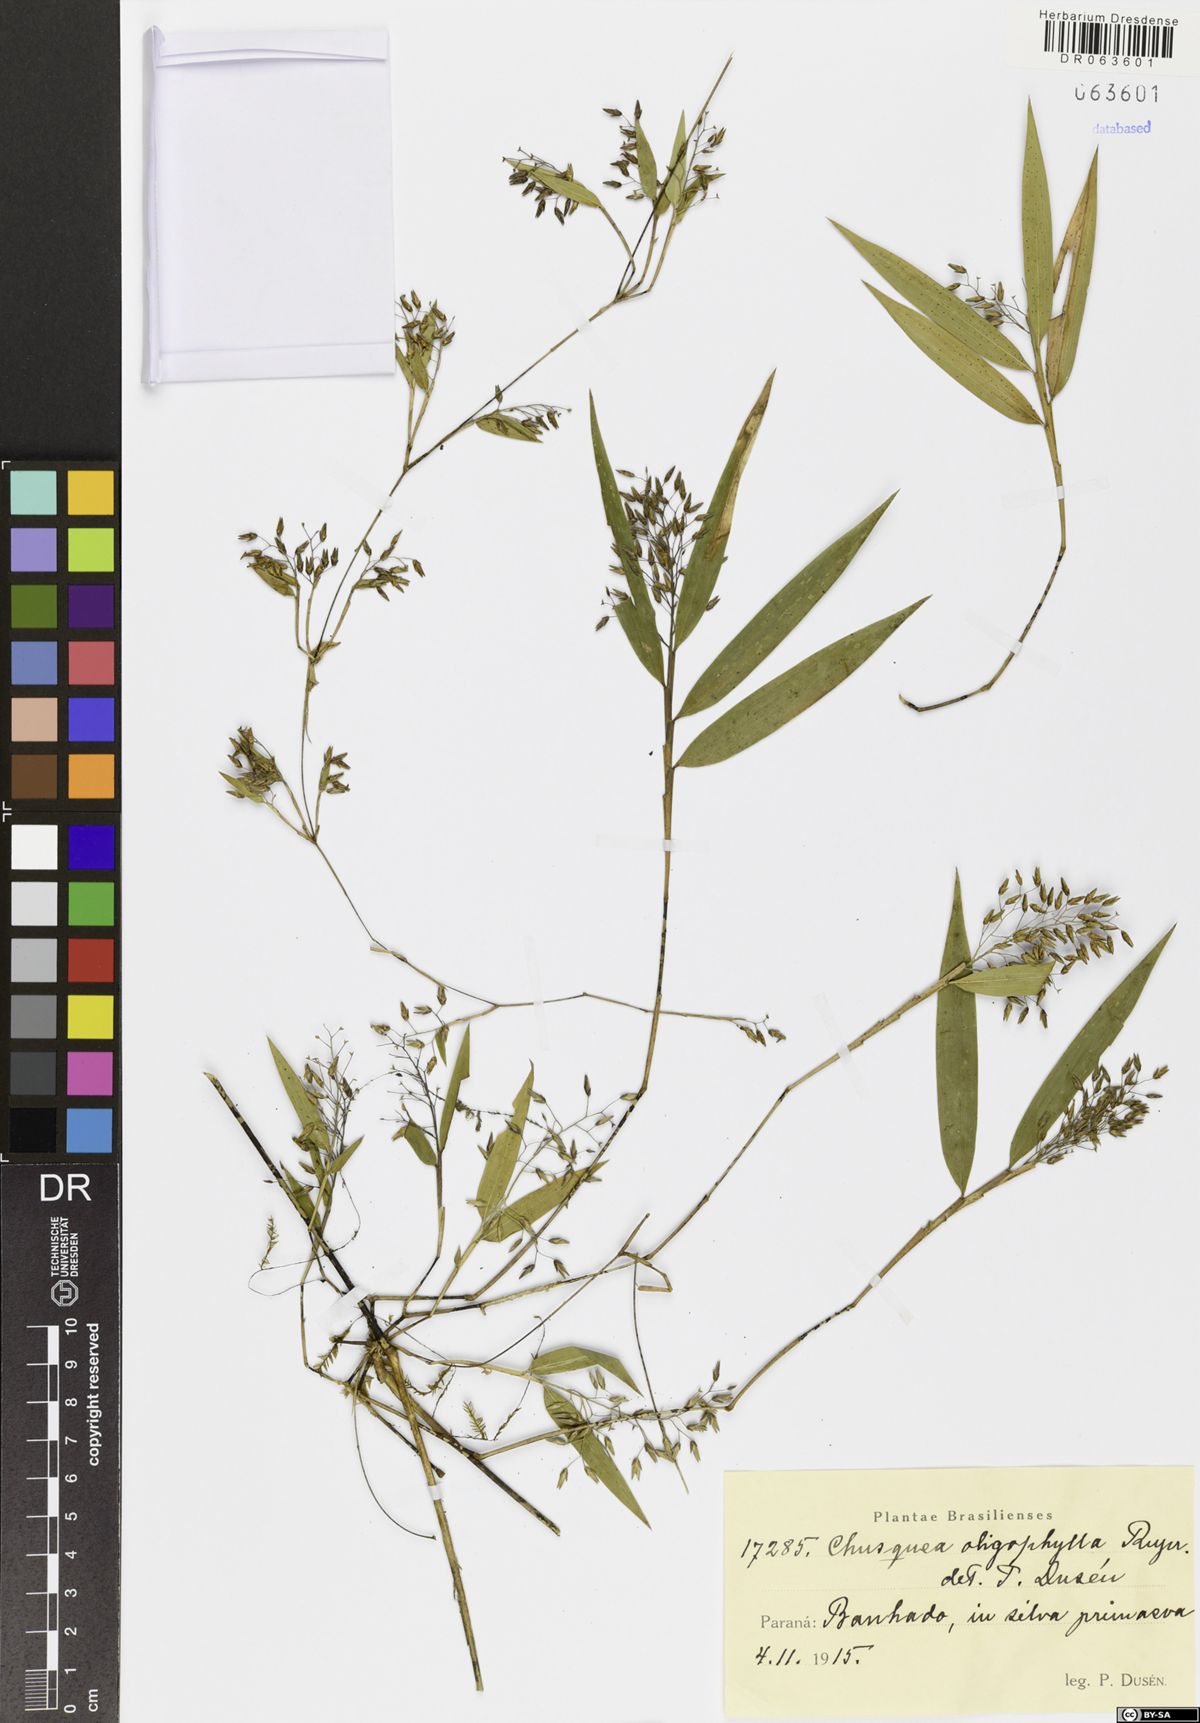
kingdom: Plantae
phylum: Tracheophyta
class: Liliopsida
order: Poales
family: Poaceae
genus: Chusquea
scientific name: Chusquea oligophylla
